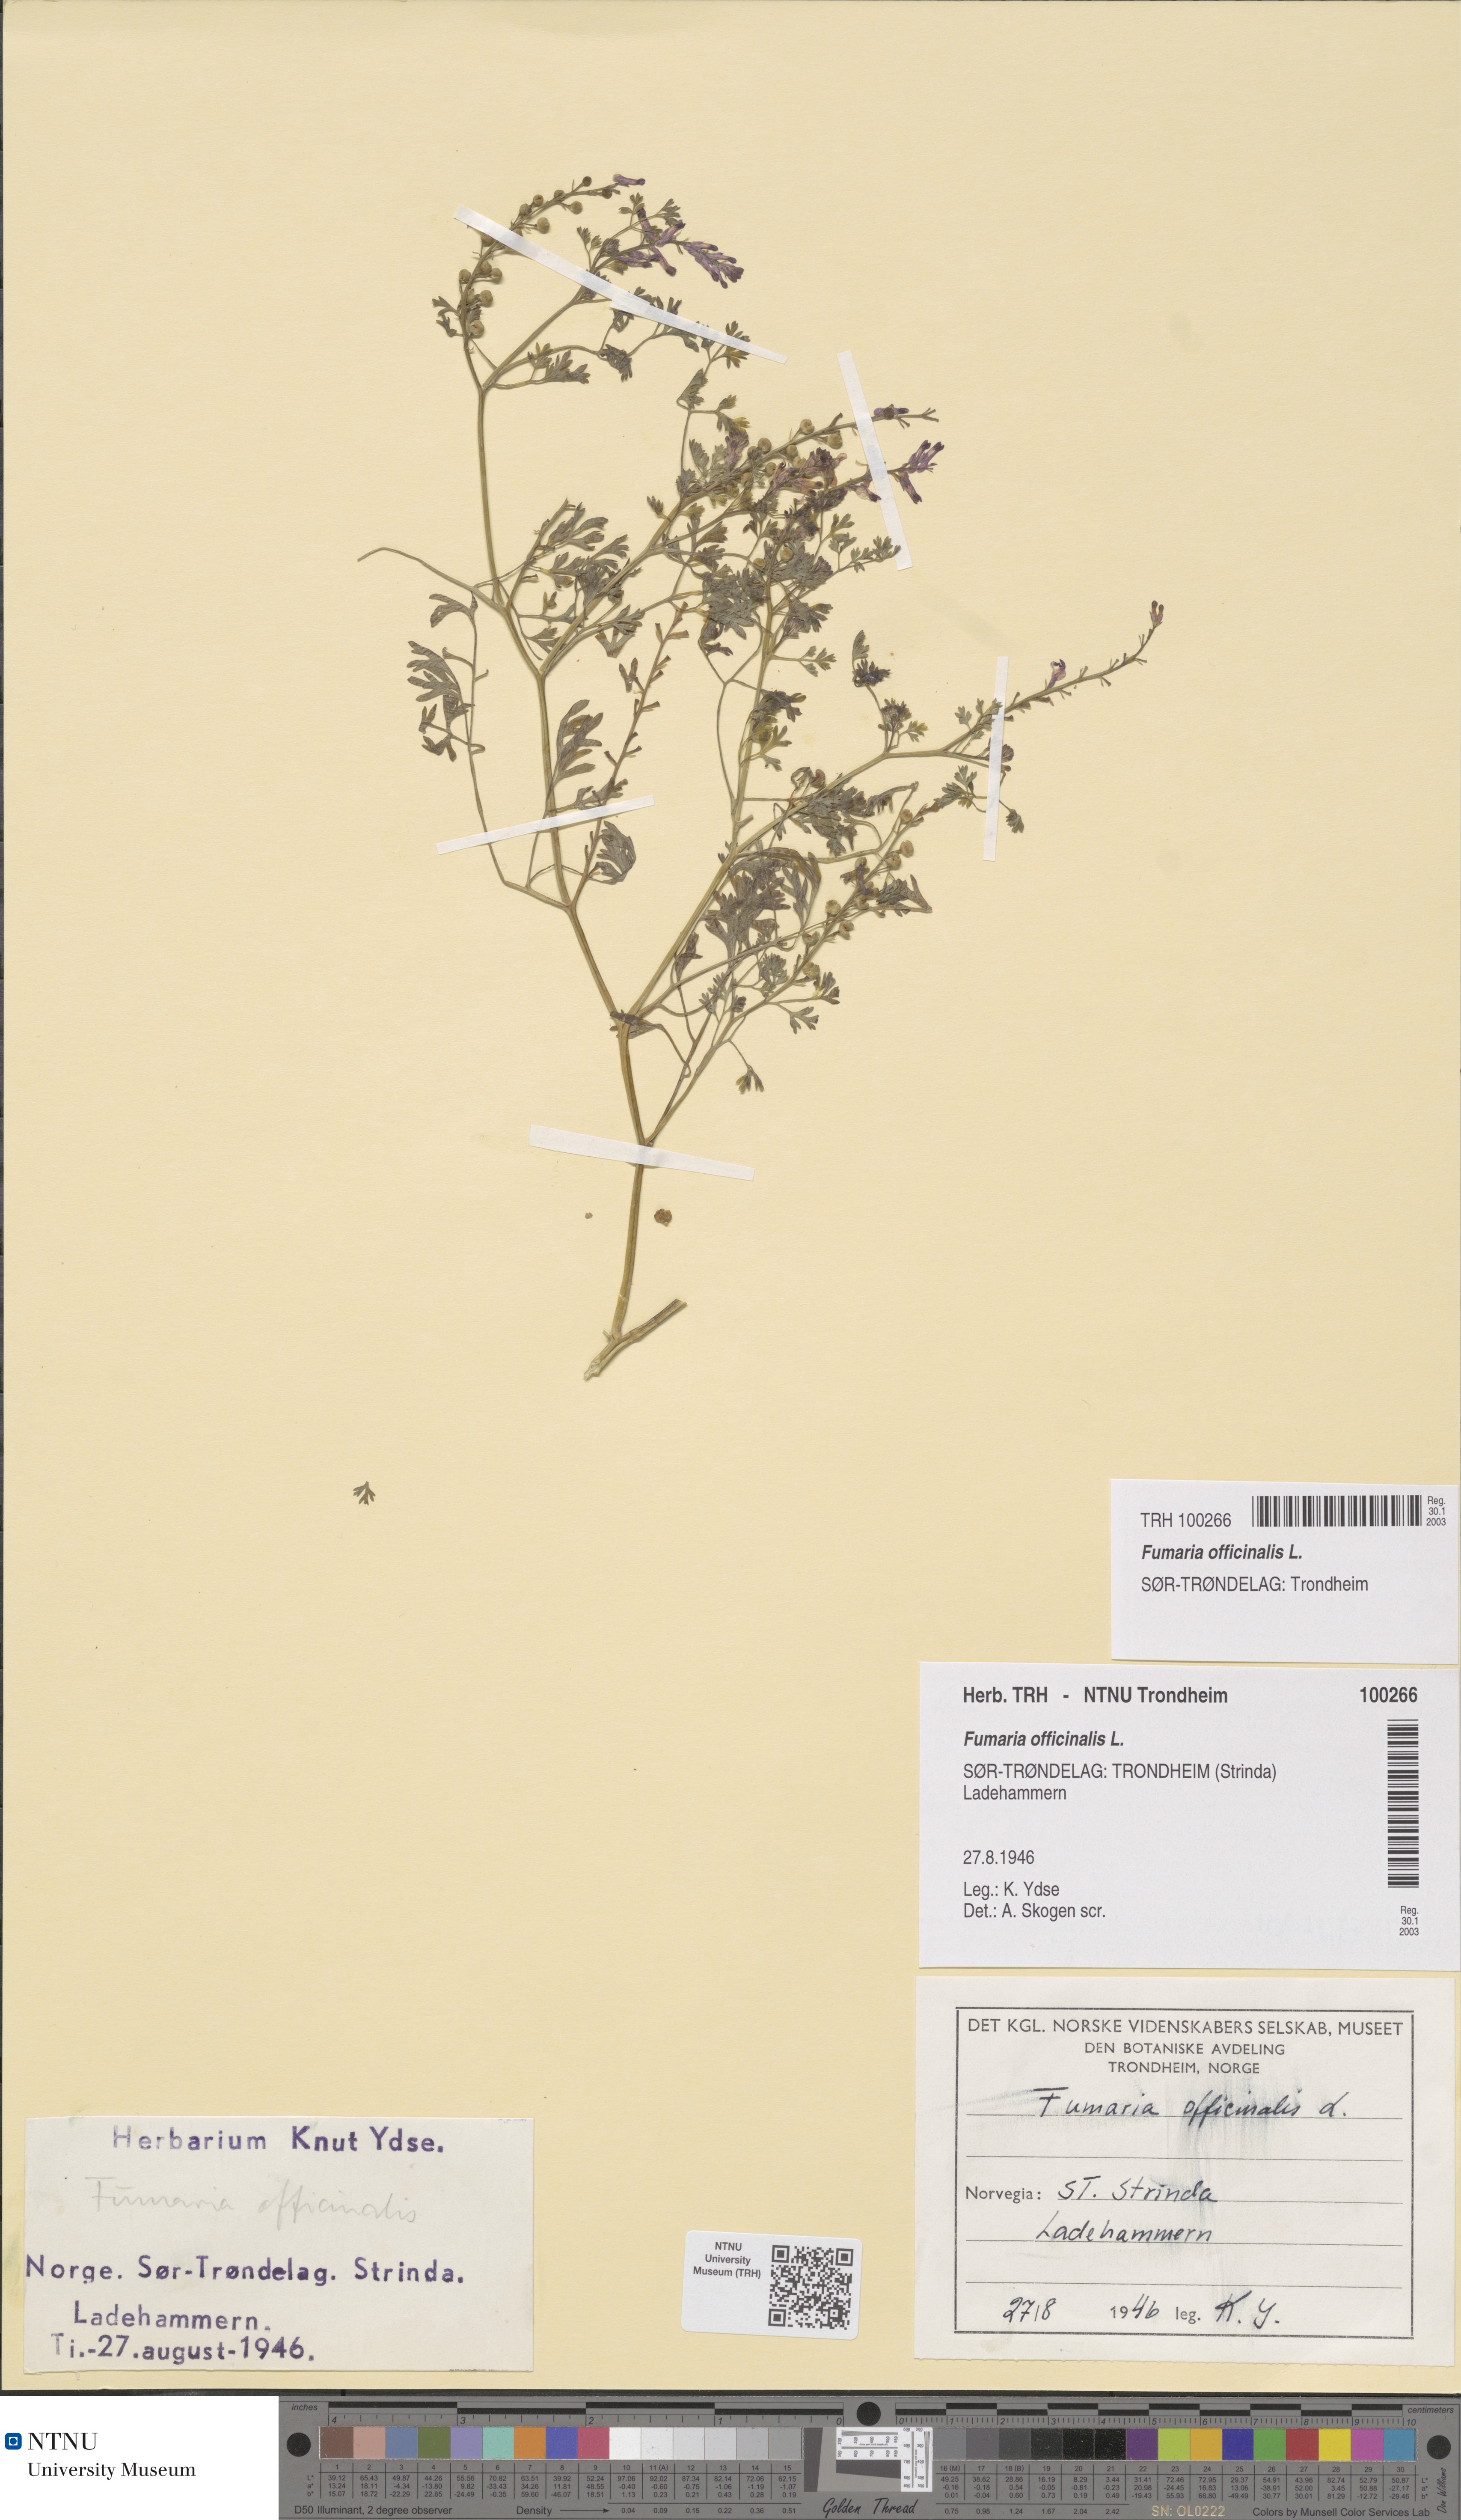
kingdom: Plantae
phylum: Tracheophyta
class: Magnoliopsida
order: Ranunculales
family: Papaveraceae
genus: Fumaria
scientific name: Fumaria officinalis
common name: Common fumitory
